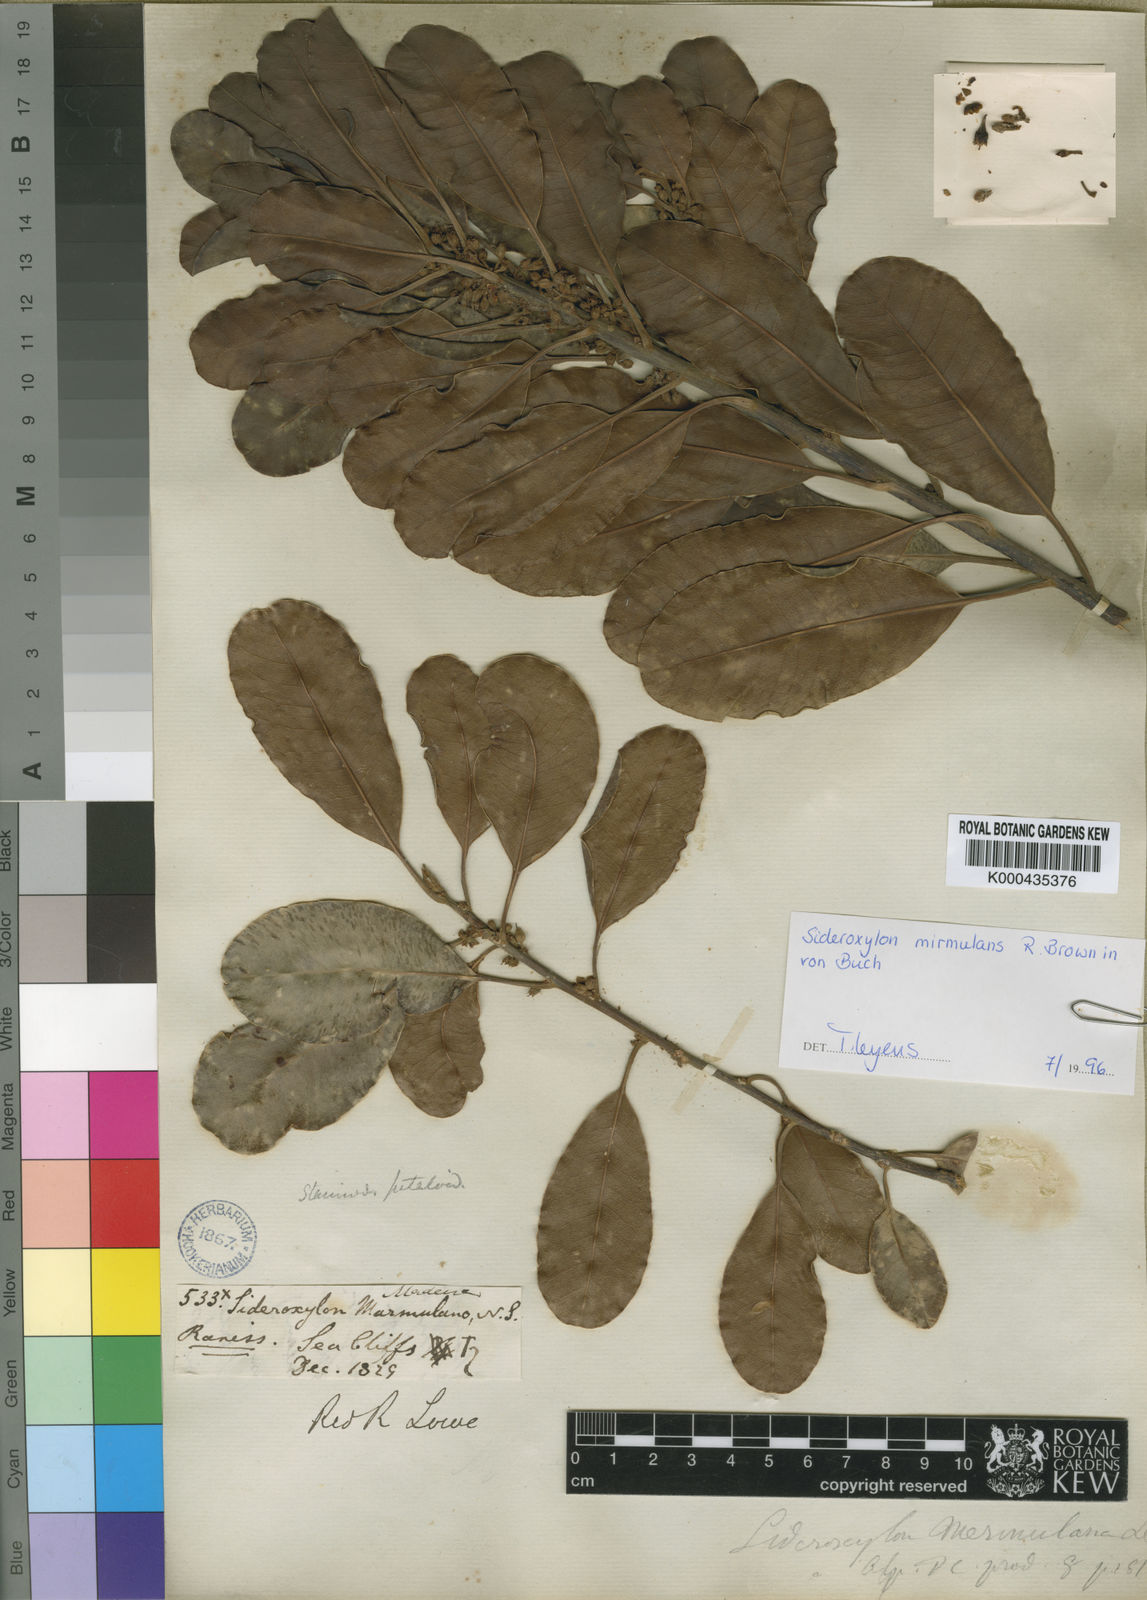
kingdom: Plantae
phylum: Tracheophyta
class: Magnoliopsida
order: Ericales
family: Sapotaceae
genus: Sideroxylon
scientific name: Sideroxylon
